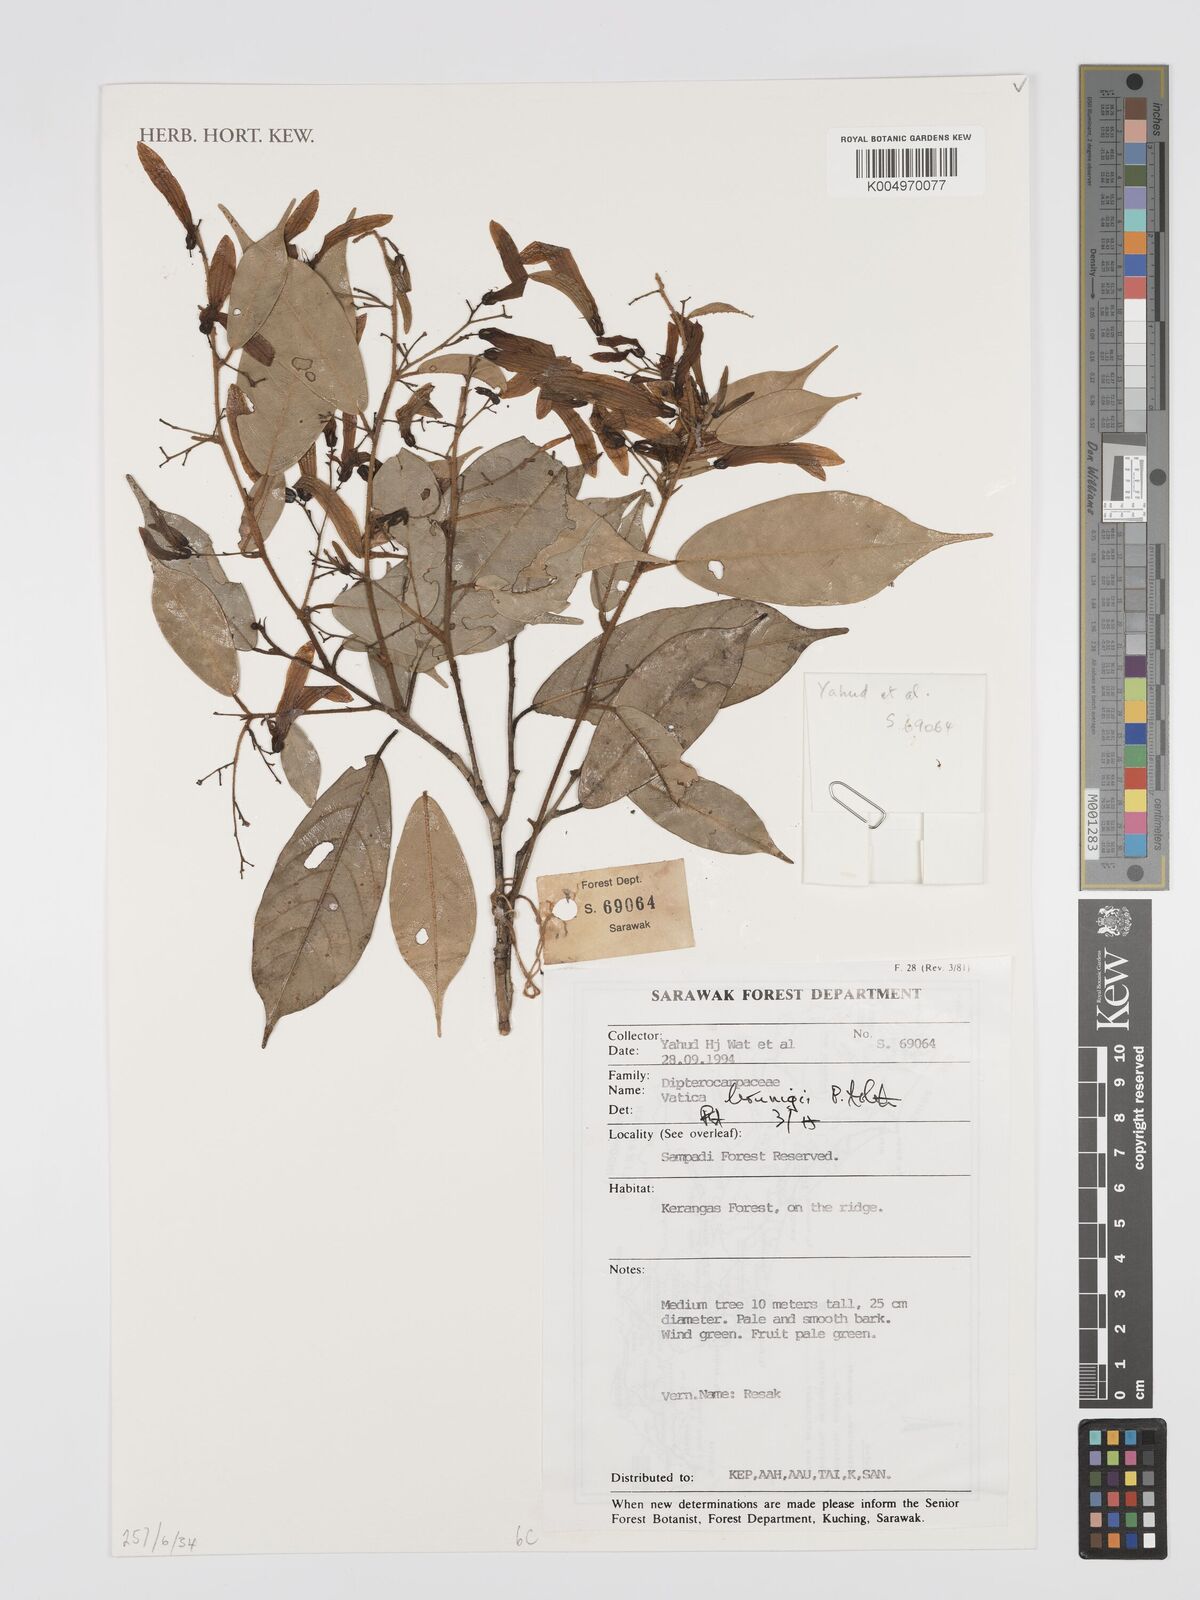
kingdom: Plantae
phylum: Tracheophyta
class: Magnoliopsida
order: Malvales
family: Dipterocarpaceae
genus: Vatica
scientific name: Vatica brunigii
